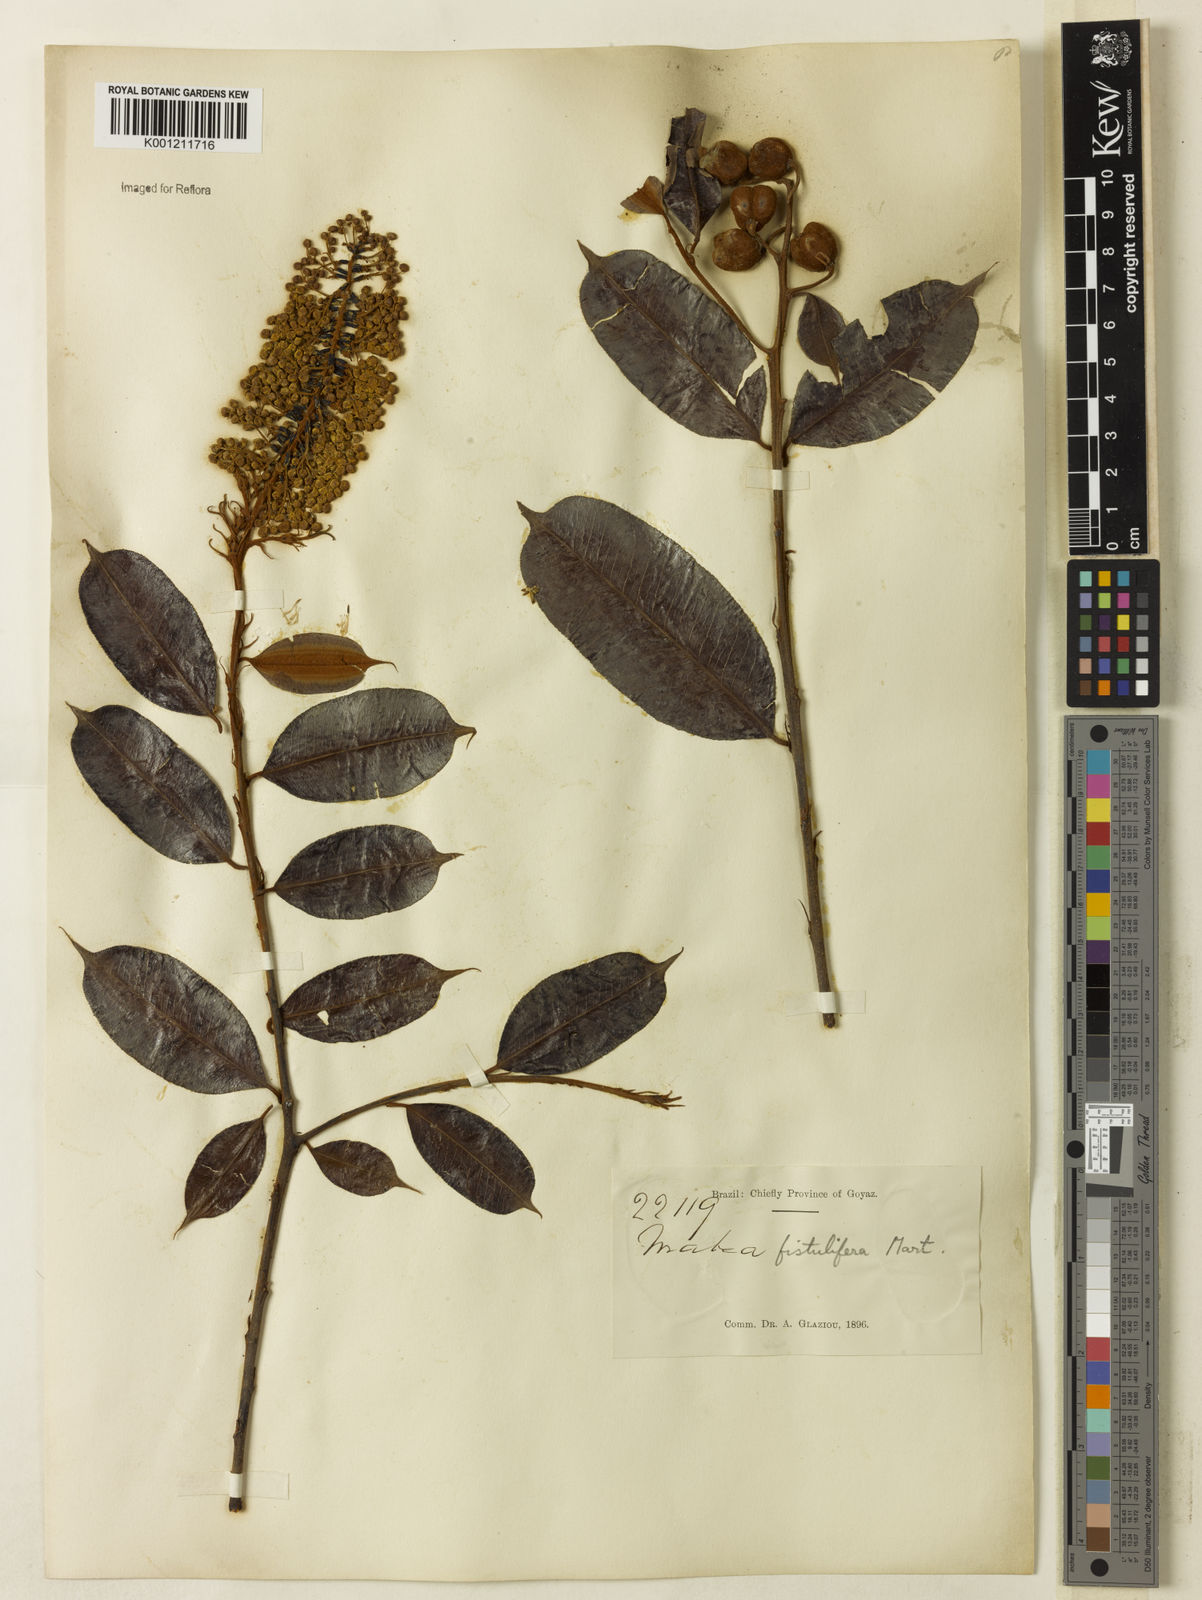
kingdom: Plantae
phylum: Tracheophyta
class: Magnoliopsida
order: Malpighiales
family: Euphorbiaceae
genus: Mabea
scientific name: Mabea fistulifera
